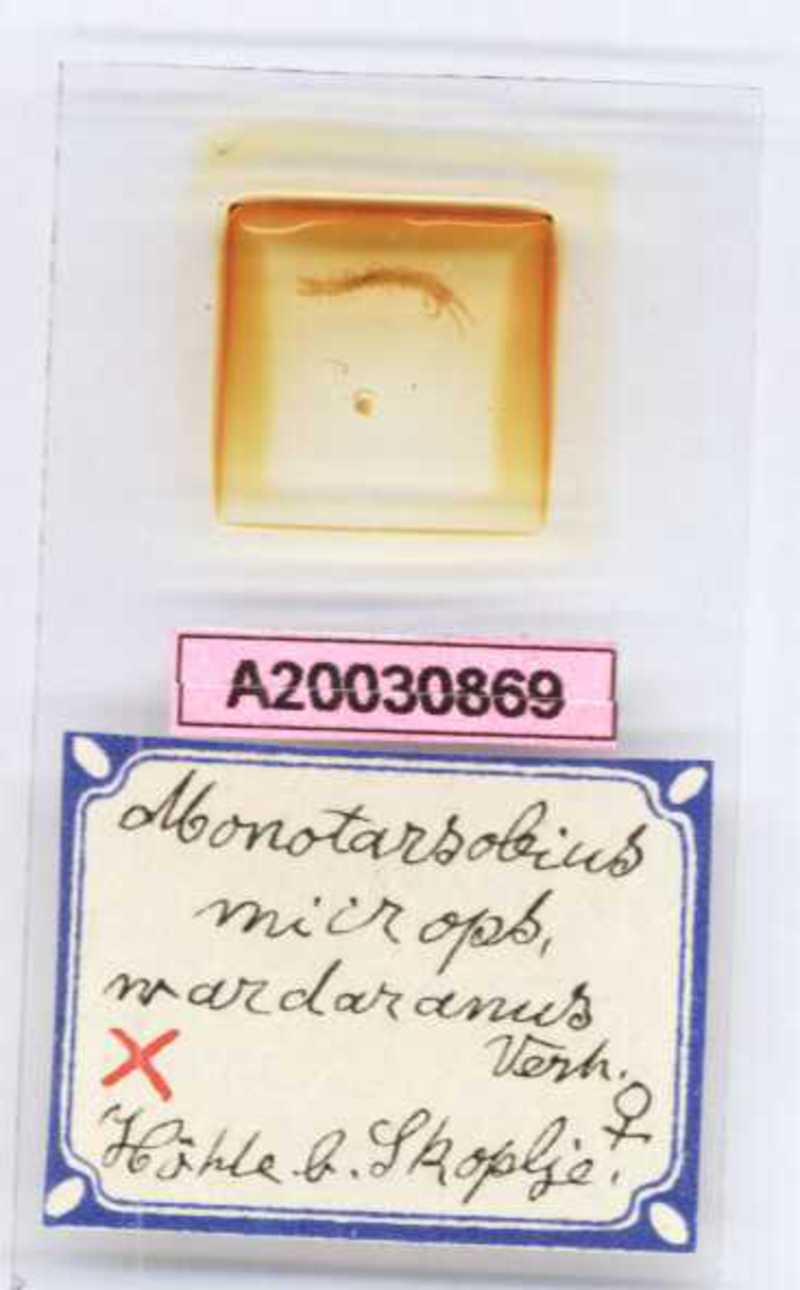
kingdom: Animalia
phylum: Arthropoda
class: Chilopoda
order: Lithobiomorpha
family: Lithobiidae
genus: Monotarsobius
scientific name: Monotarsobius microps
